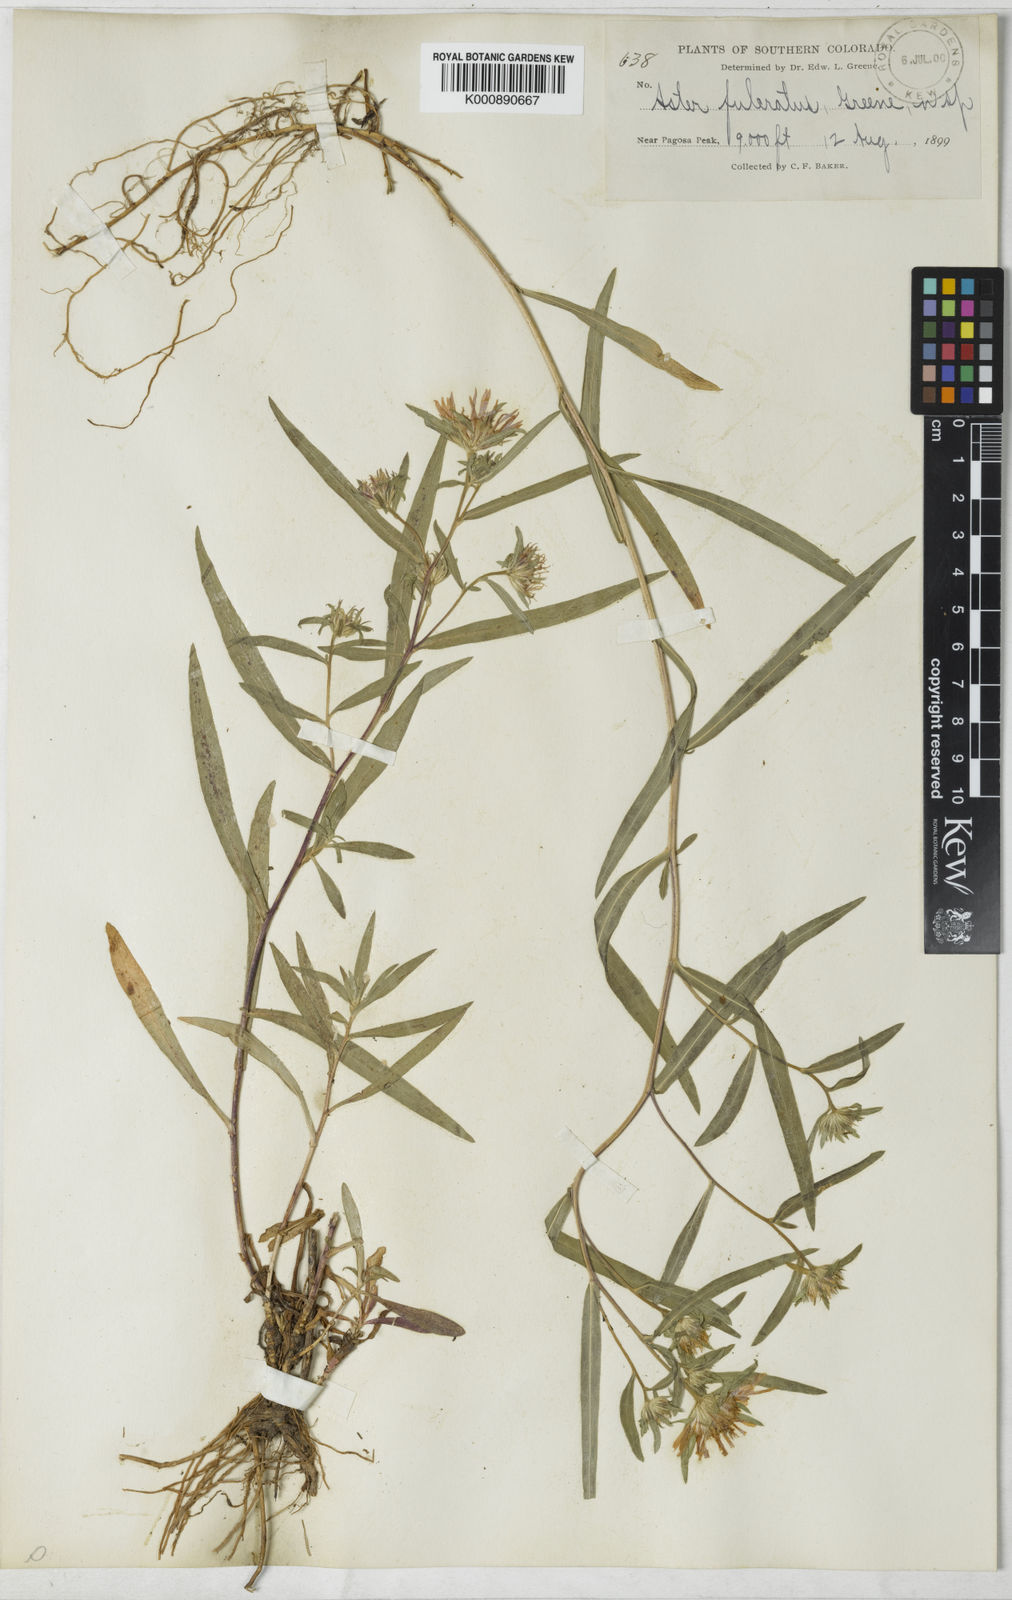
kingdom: Plantae
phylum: Tracheophyta
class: Magnoliopsida
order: Asterales
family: Asteraceae
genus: Aster
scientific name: Aster fulcratus
